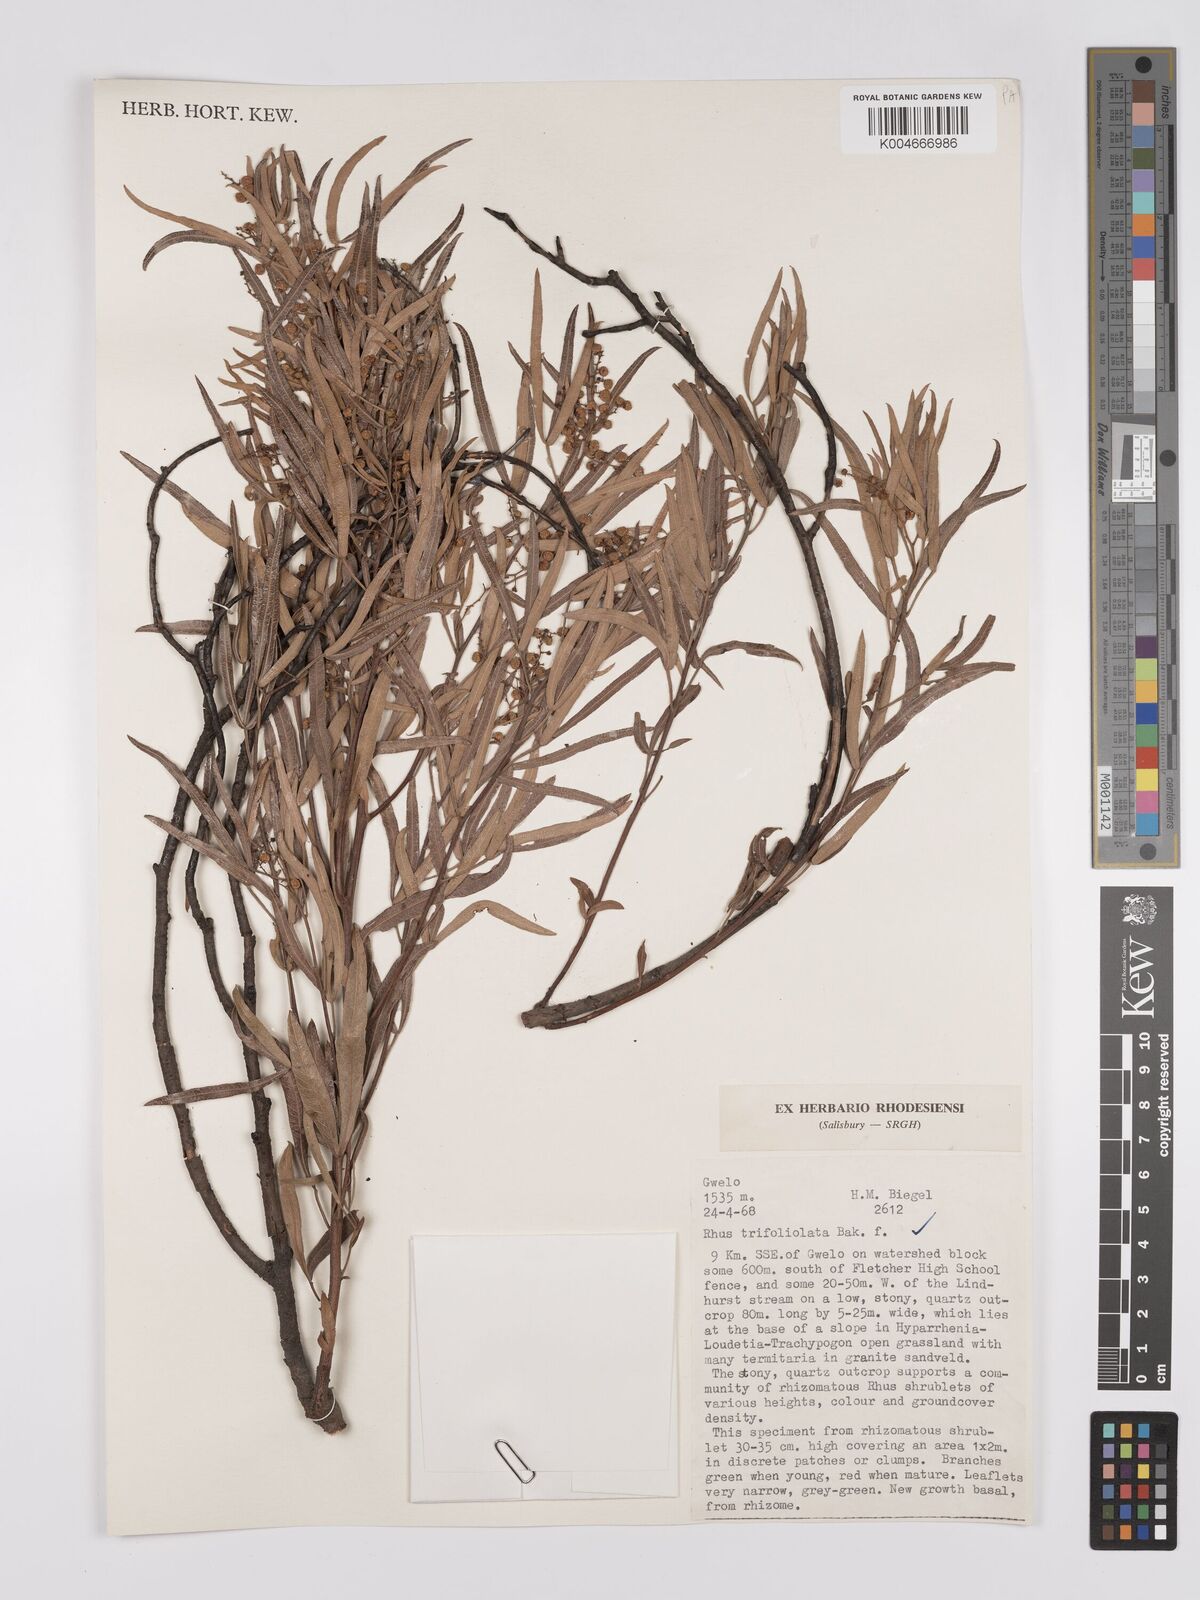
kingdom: Plantae
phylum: Tracheophyta
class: Magnoliopsida
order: Sapindales
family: Anacardiaceae
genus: Rhus
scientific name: Rhus
